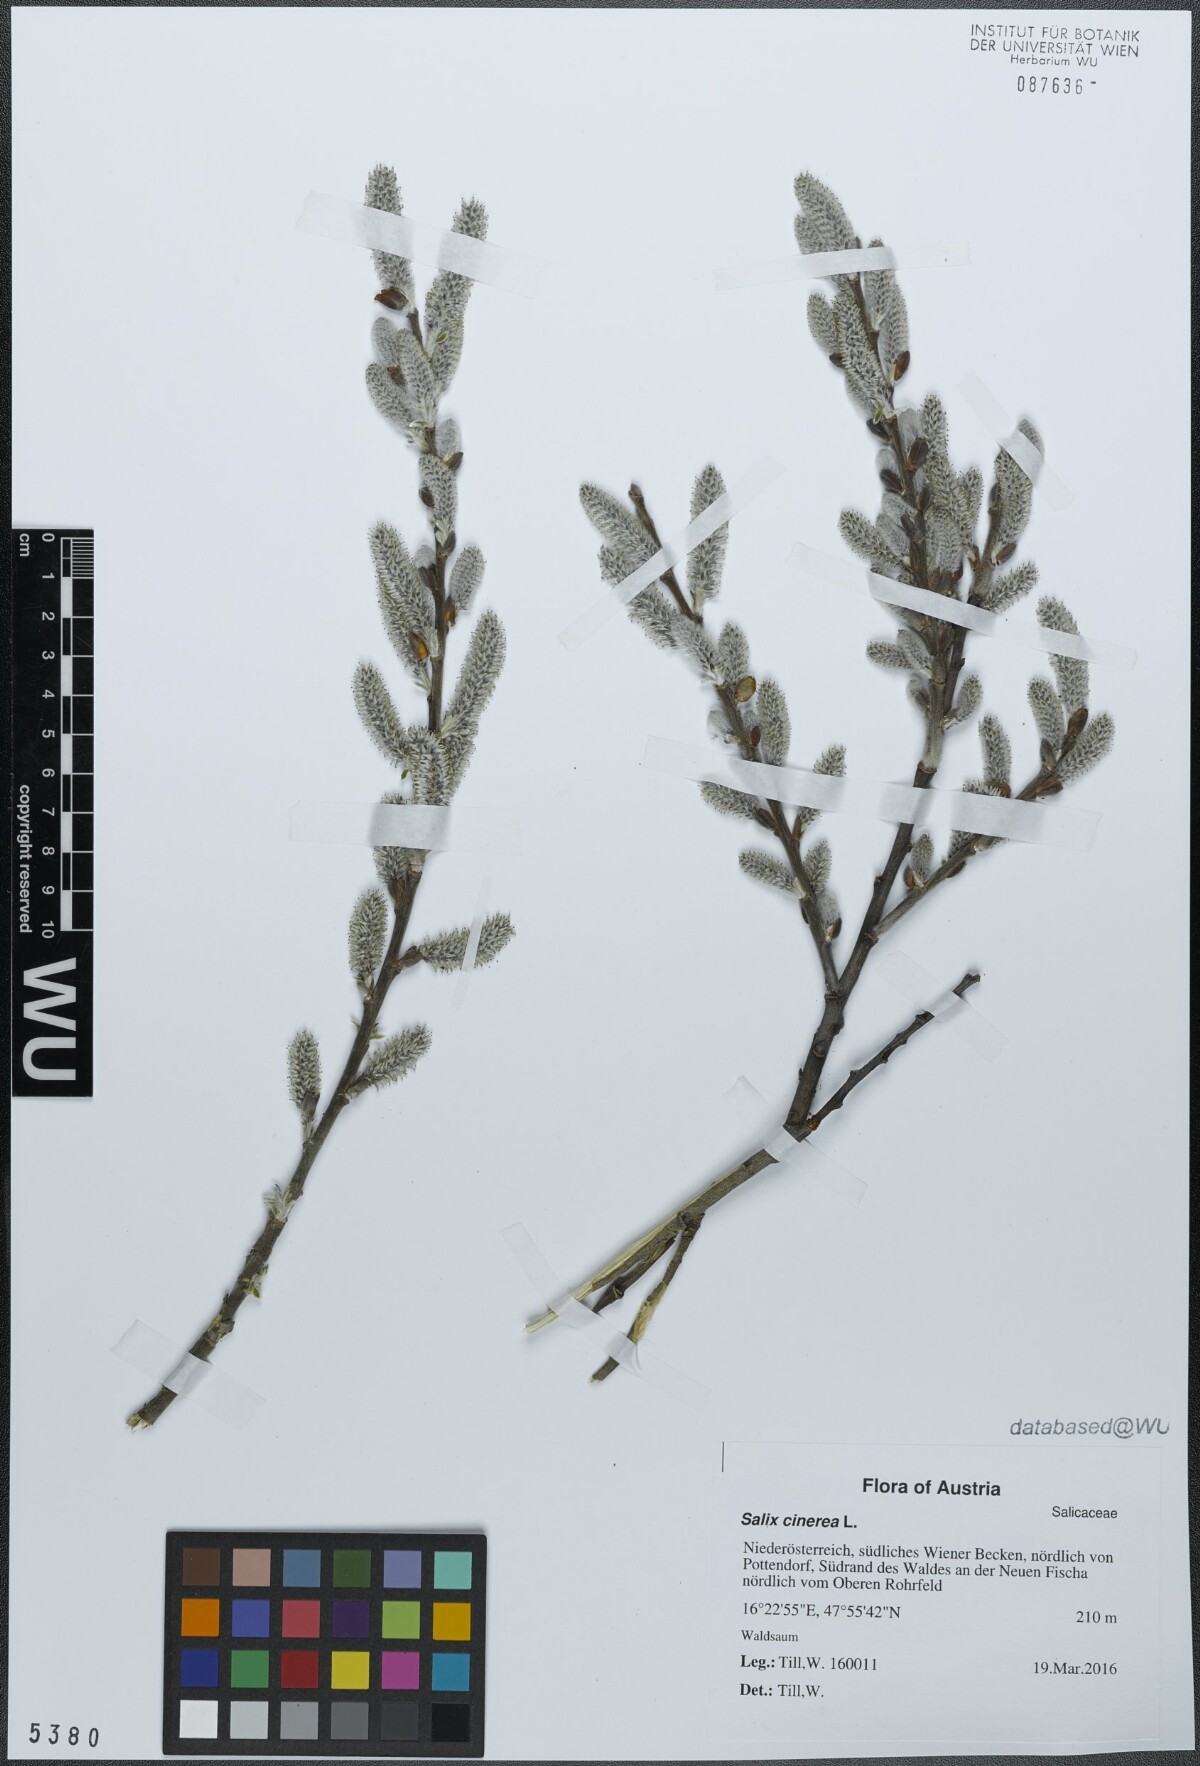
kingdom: Plantae
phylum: Tracheophyta
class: Magnoliopsida
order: Malpighiales
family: Salicaceae
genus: Salix
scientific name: Salix cinerea
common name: Common sallow
